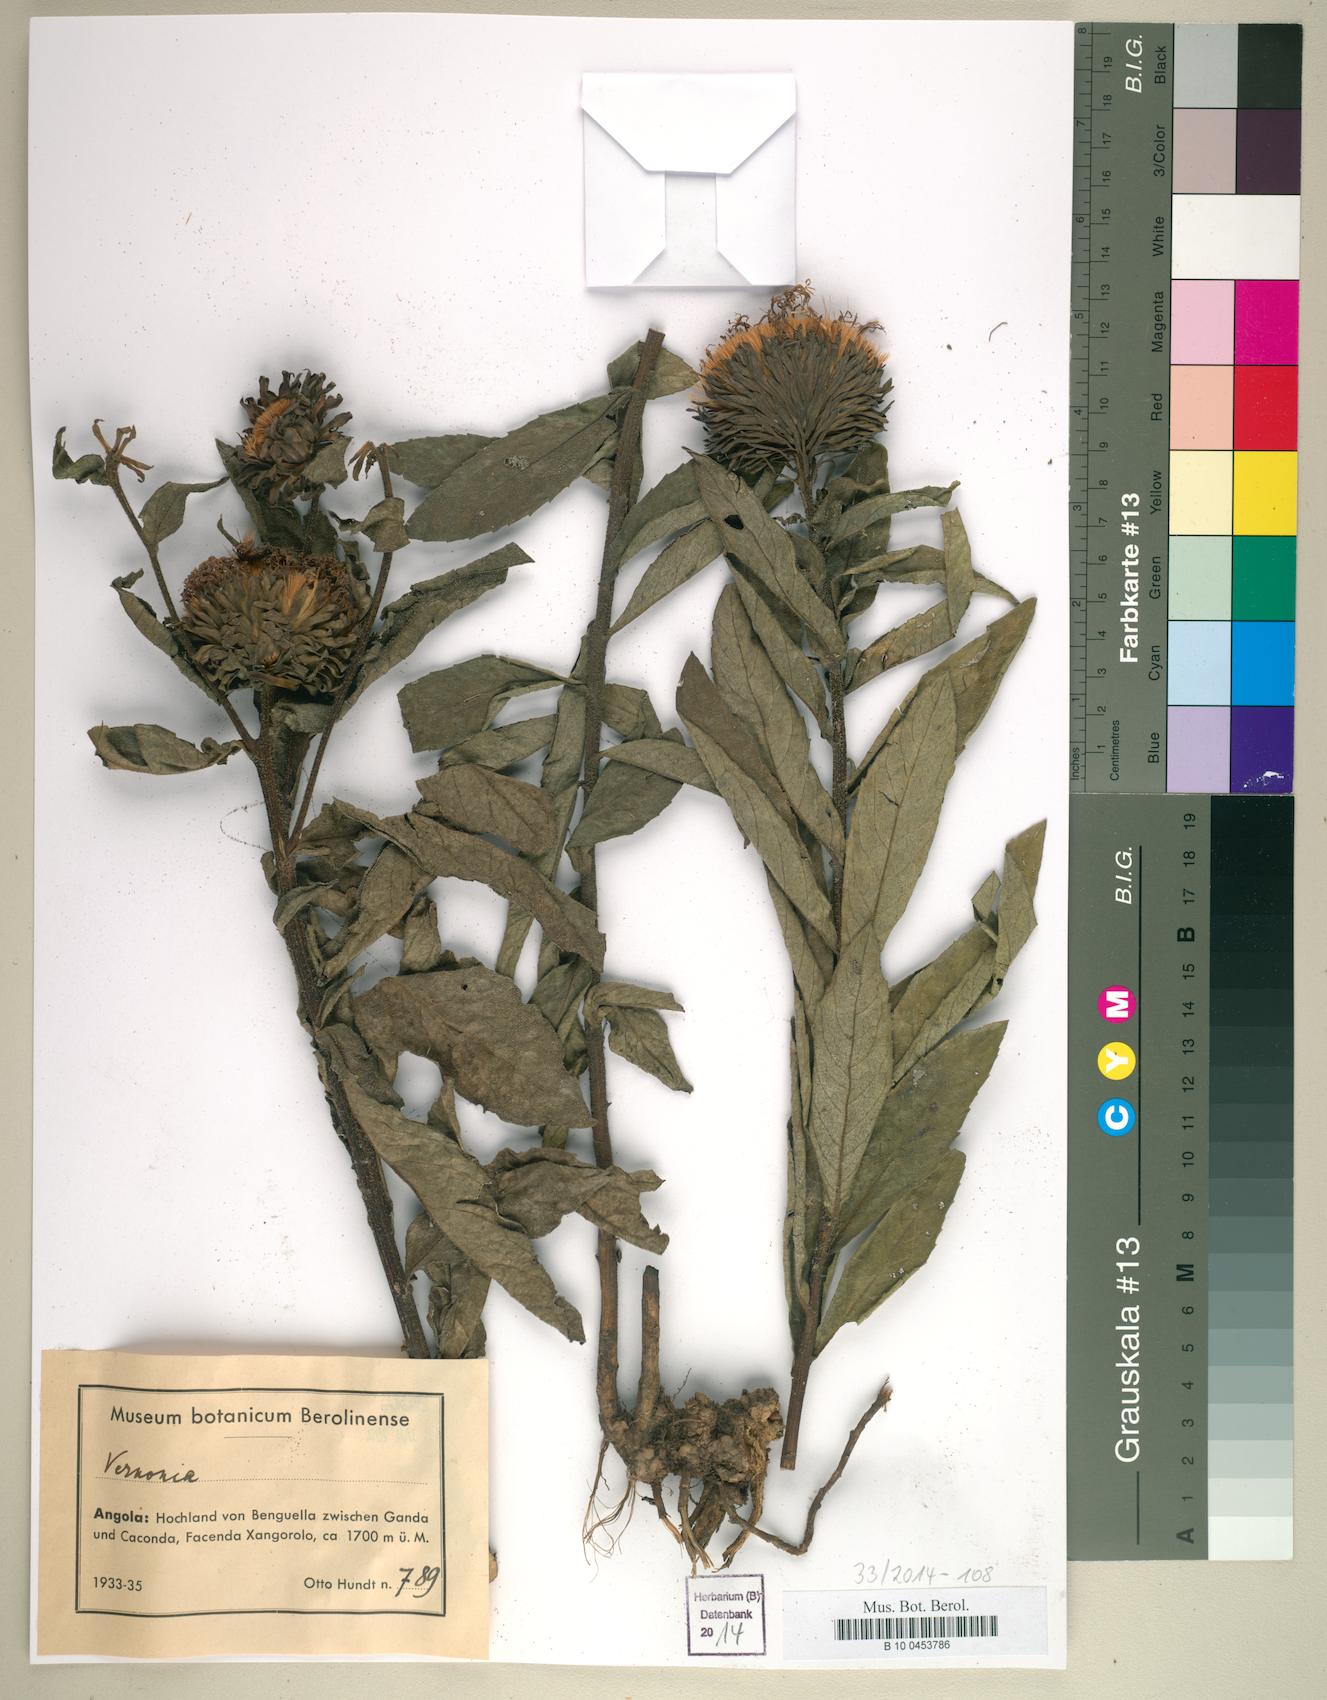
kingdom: Plantae
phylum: Tracheophyta
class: Magnoliopsida
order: Asterales
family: Asteraceae
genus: Vernonia
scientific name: Vernonia
